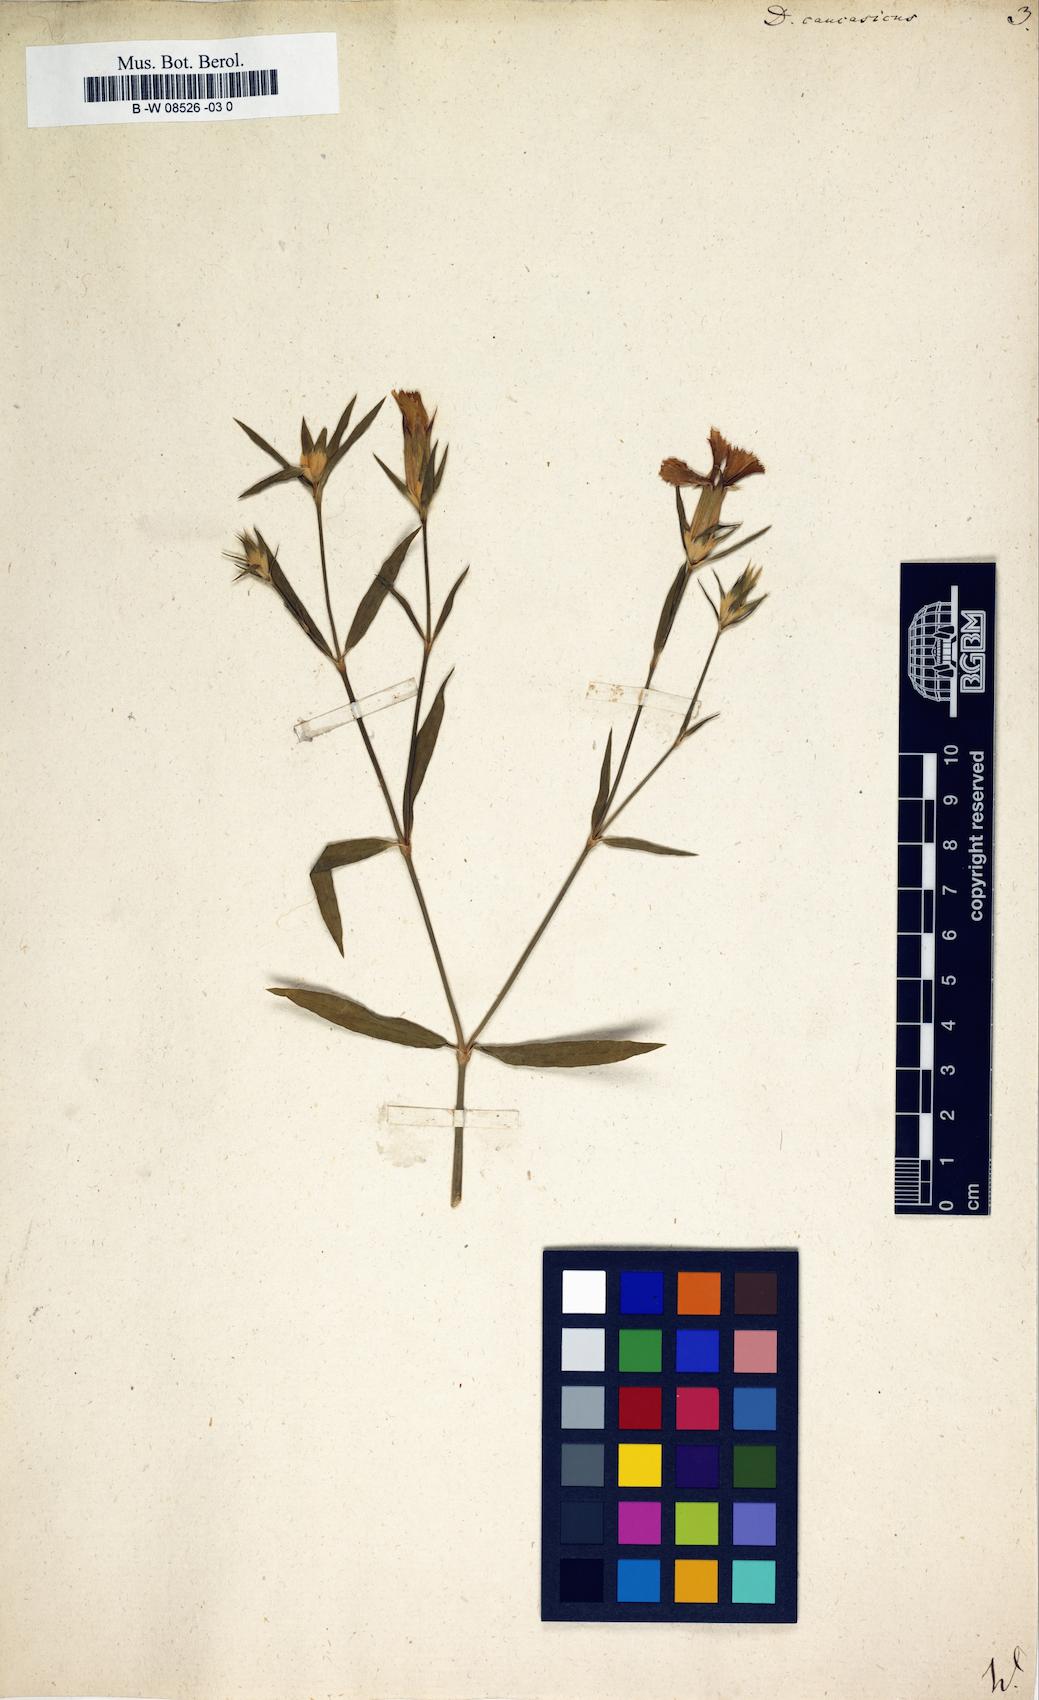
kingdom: Plantae
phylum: Tracheophyta
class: Magnoliopsida
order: Caryophyllales
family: Caryophyllaceae
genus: Dianthus
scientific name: Dianthus bicolor
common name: Bicolour pink
